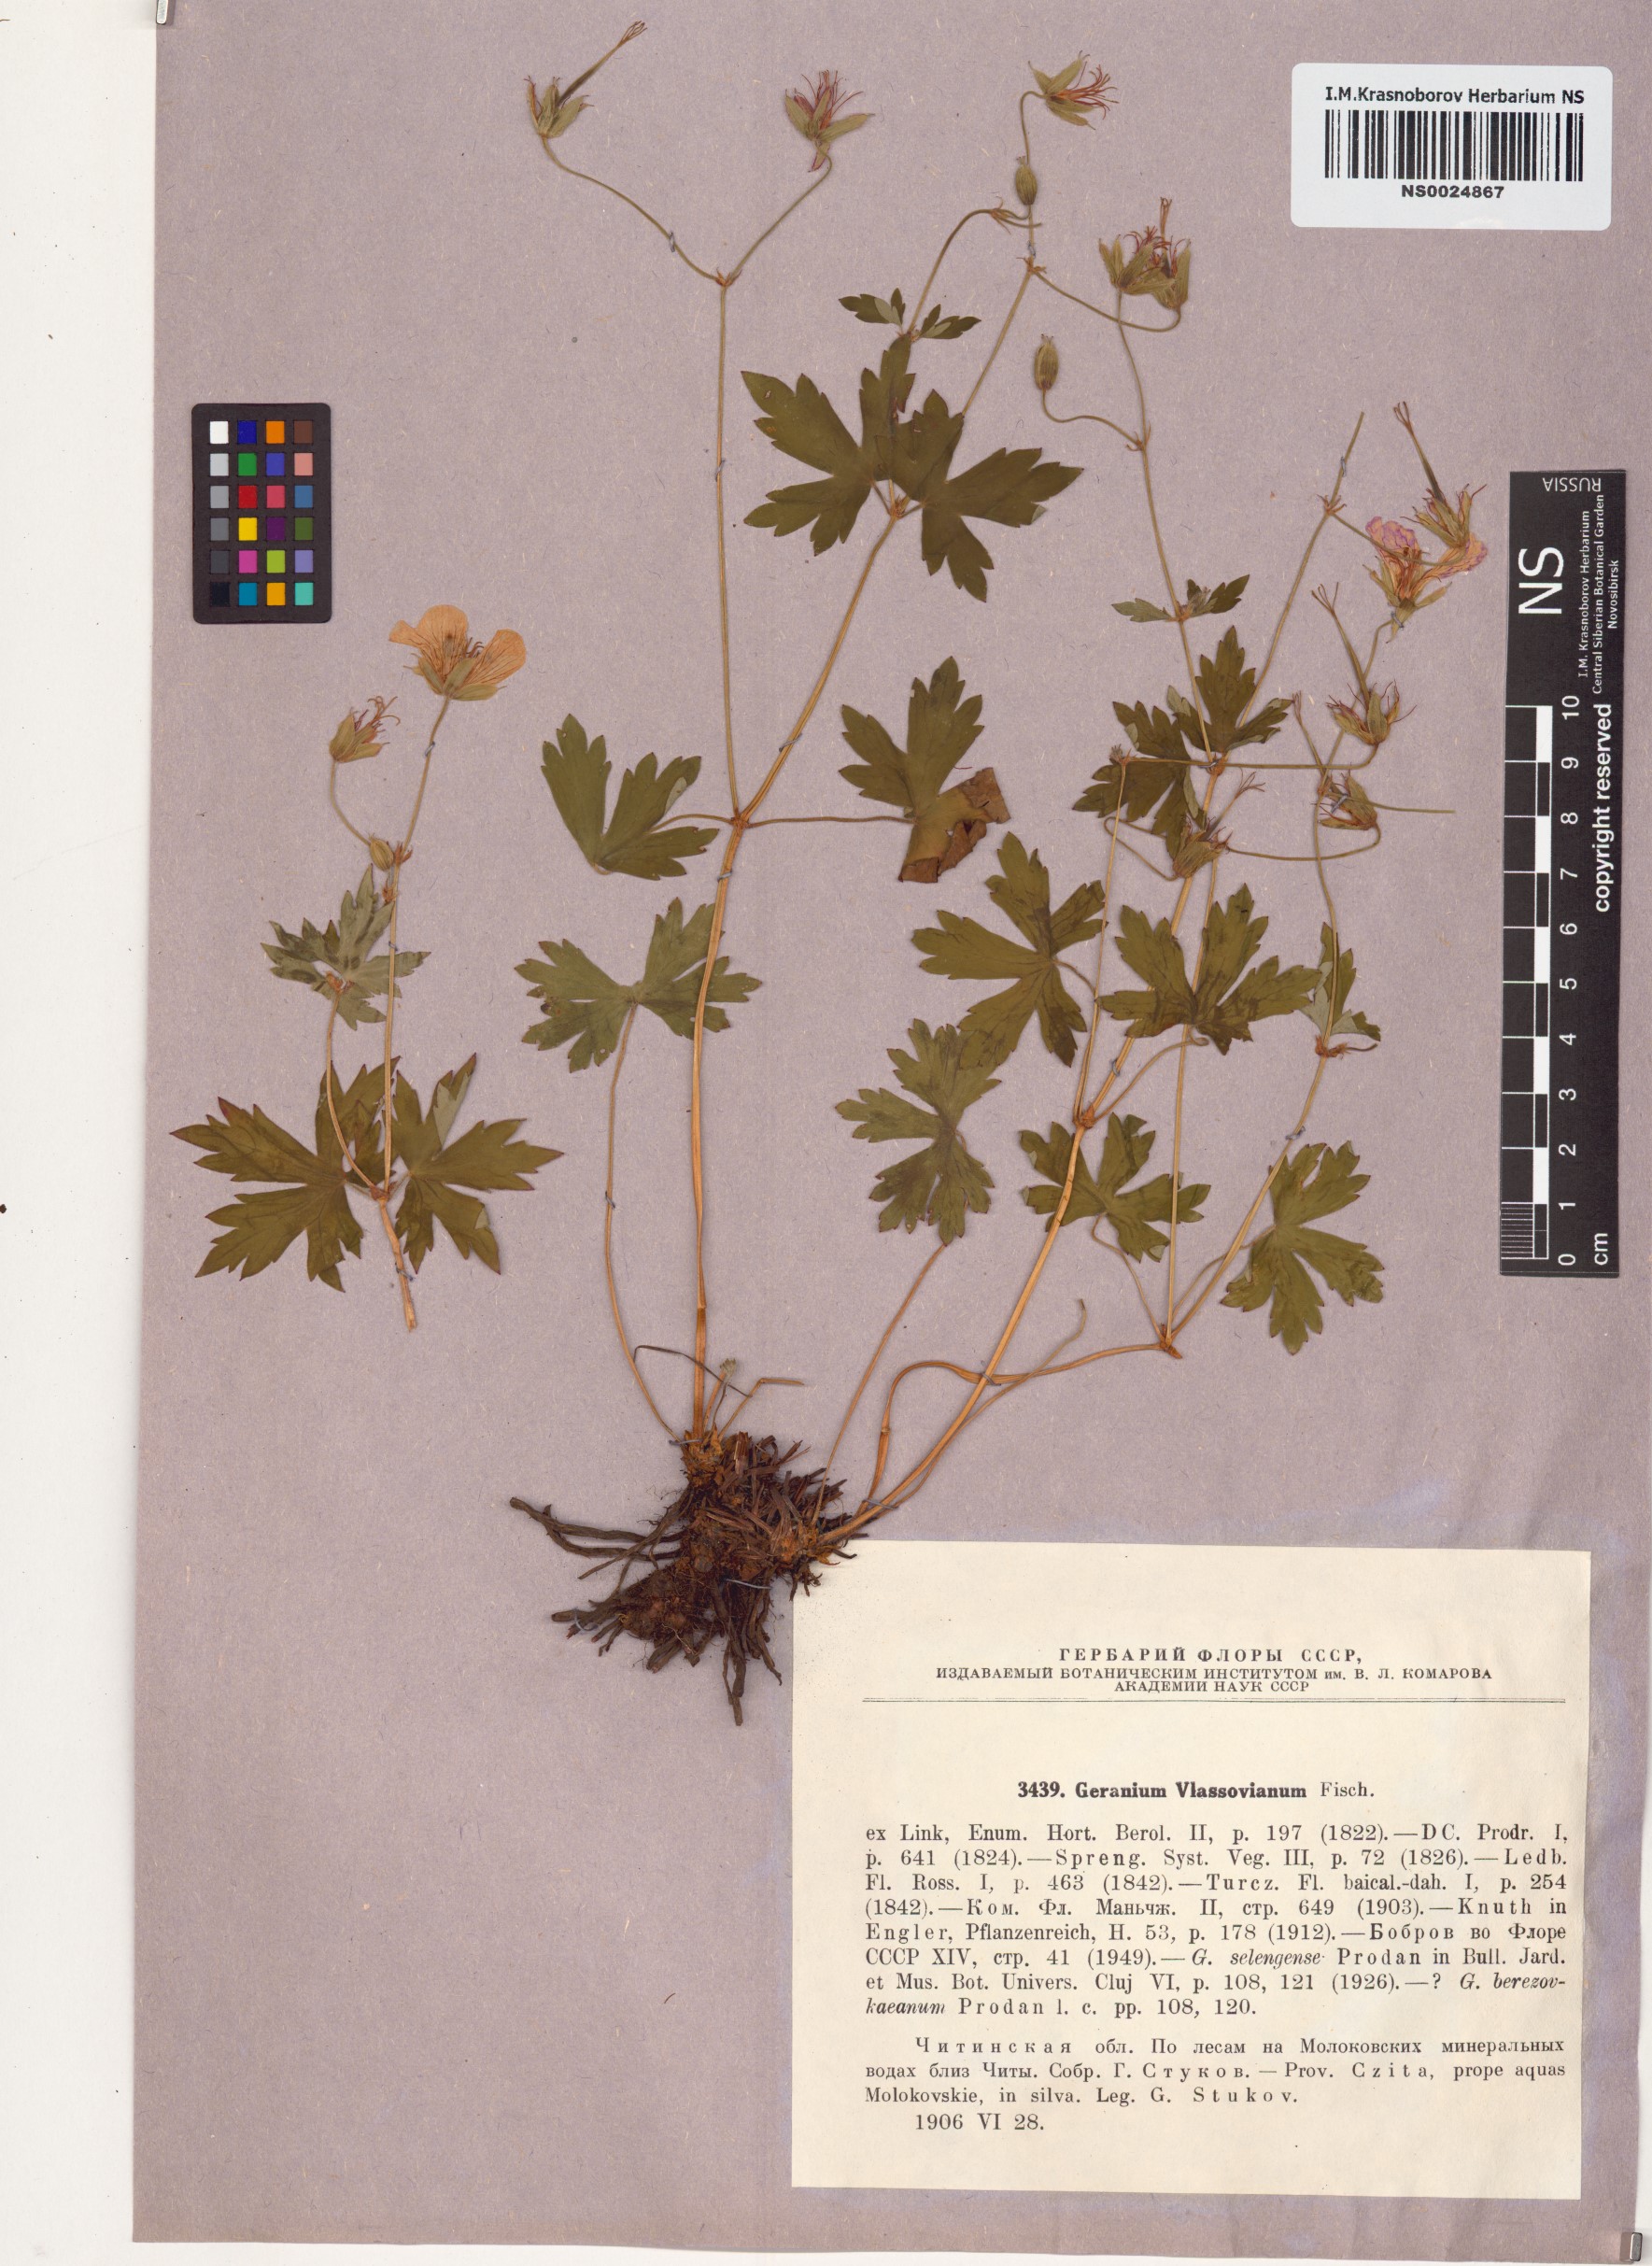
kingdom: Plantae
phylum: Tracheophyta
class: Magnoliopsida
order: Geraniales
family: Geraniaceae
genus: Geranium
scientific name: Geranium wlassovianum
